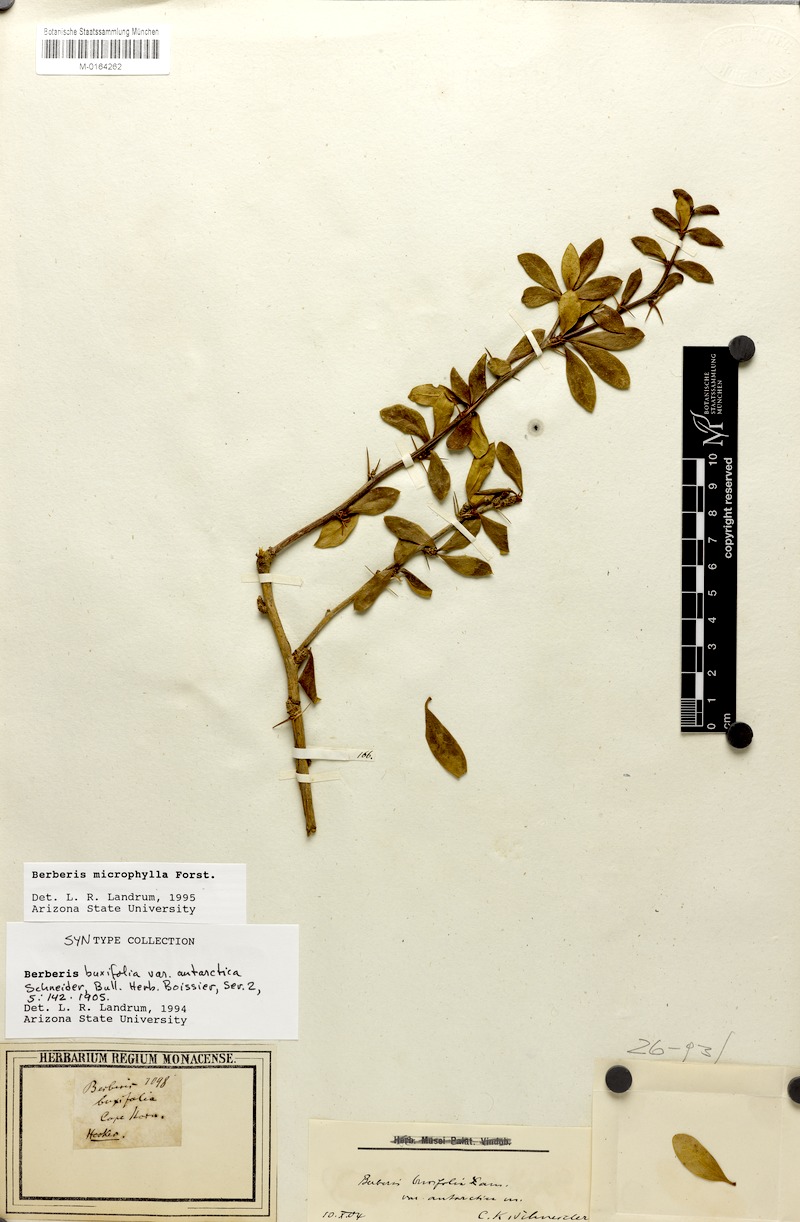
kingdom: Plantae
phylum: Tracheophyta
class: Magnoliopsida
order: Ranunculales
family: Berberidaceae
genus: Berberis
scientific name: Berberis microphylla
